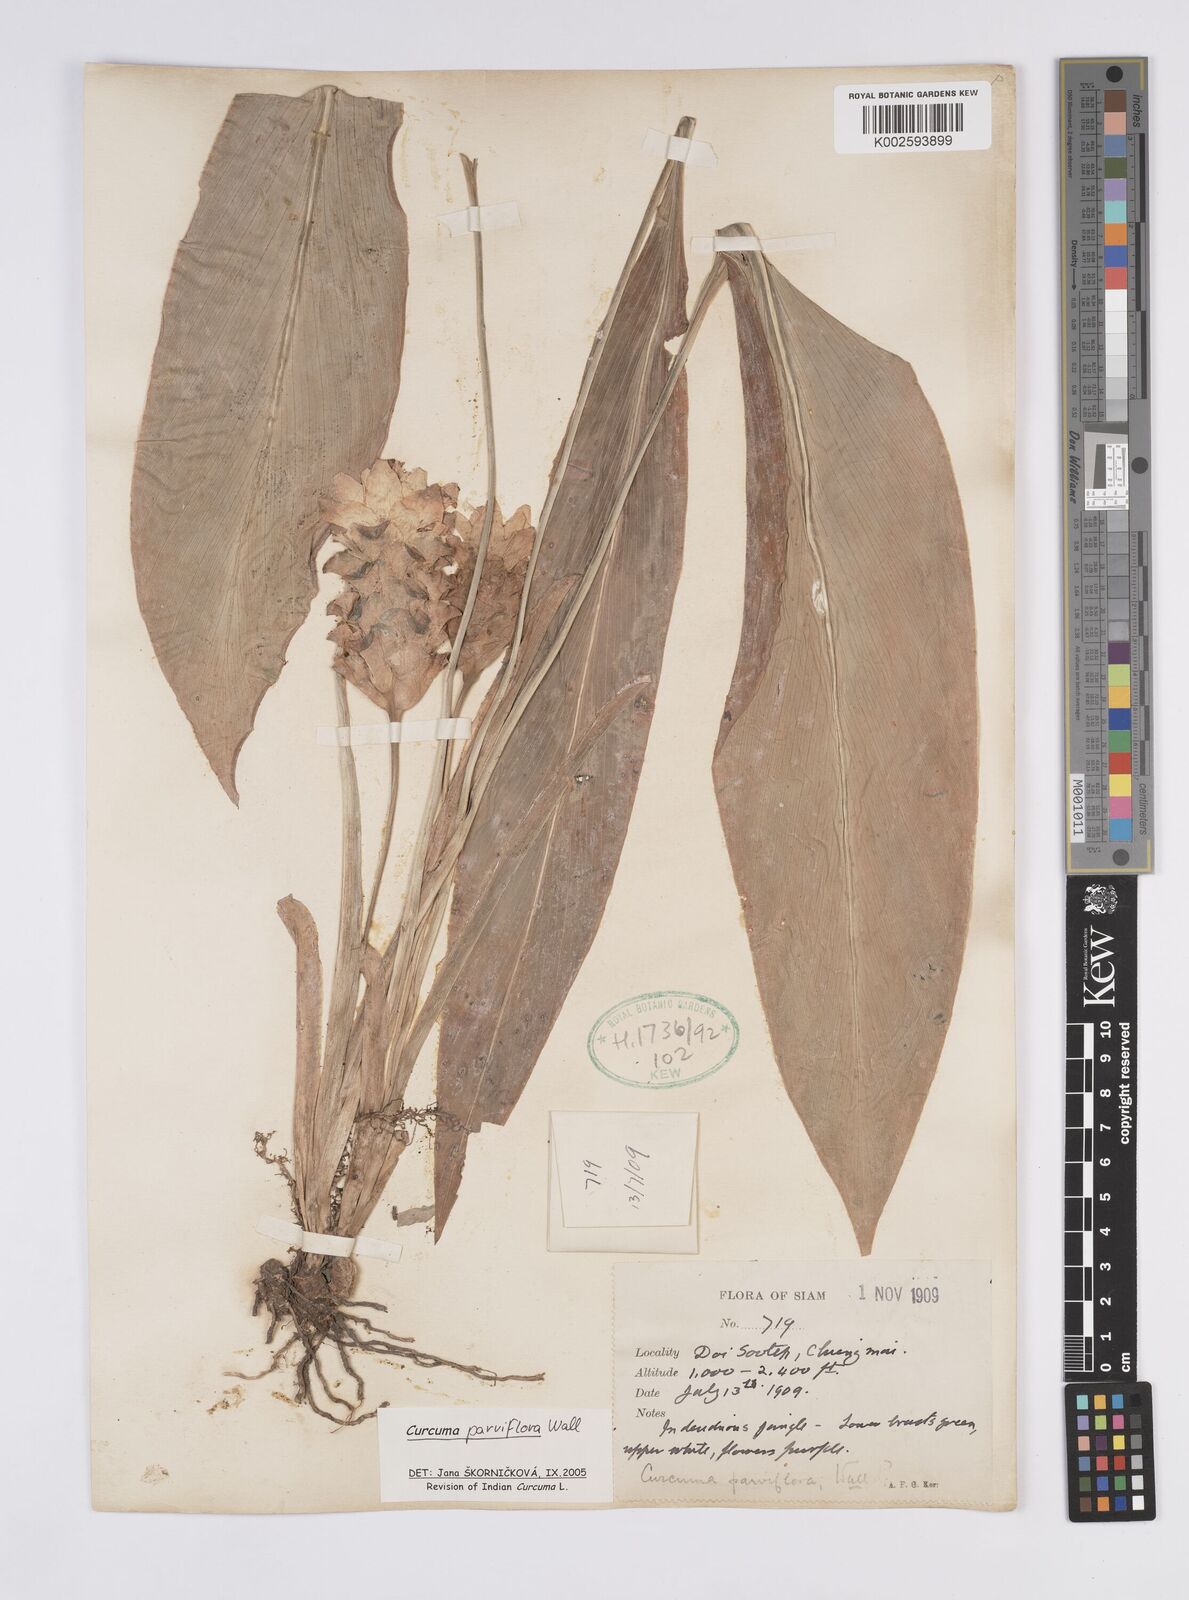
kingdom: Plantae
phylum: Tracheophyta
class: Liliopsida
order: Zingiberales
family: Zingiberaceae
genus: Curcuma
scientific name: Curcuma parviflora
